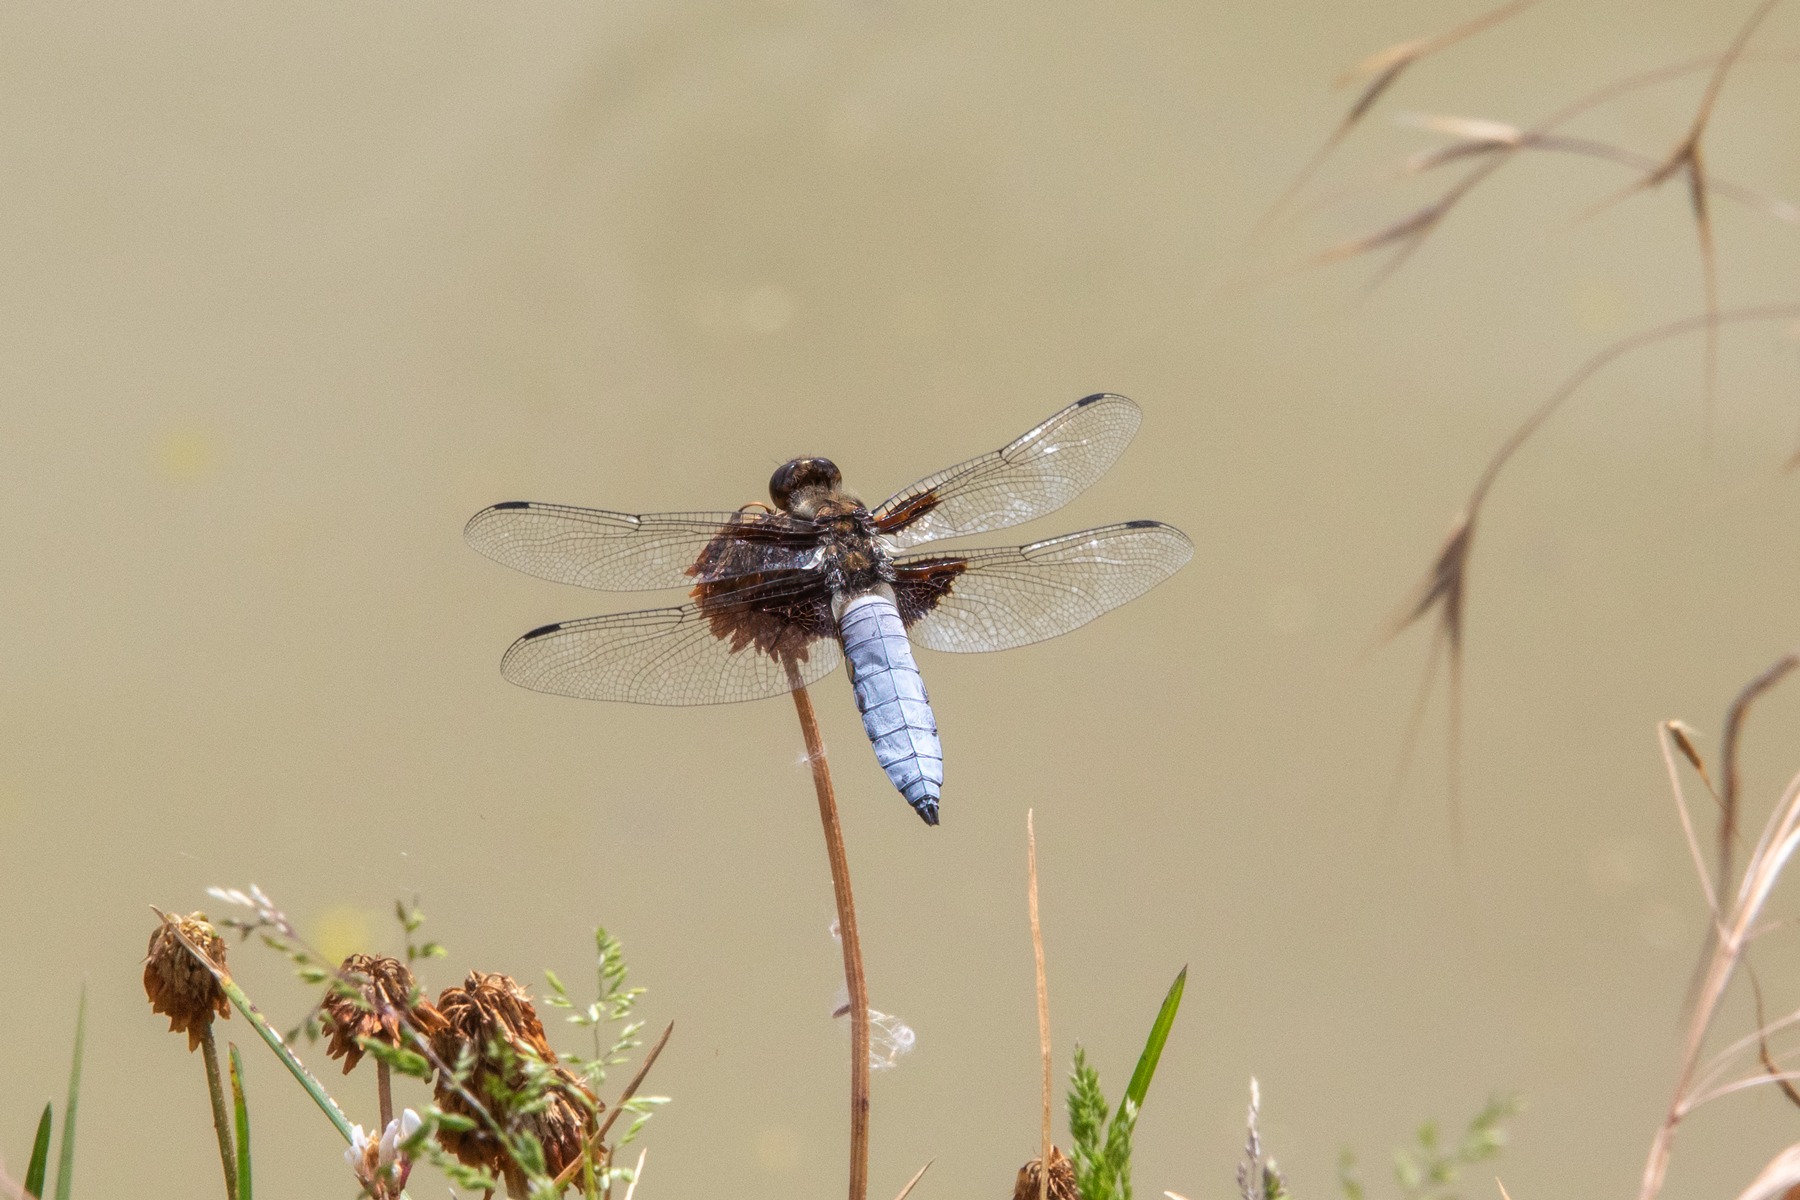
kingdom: Animalia
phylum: Arthropoda
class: Insecta
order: Odonata
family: Libellulidae
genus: Libellula
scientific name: Libellula depressa
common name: Blå libel
